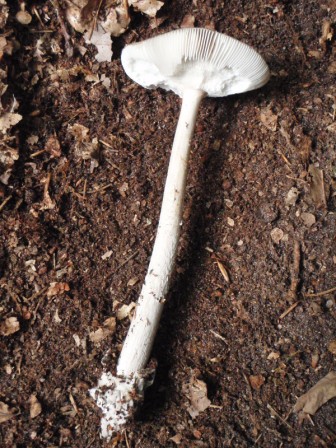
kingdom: Fungi
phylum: Basidiomycota
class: Agaricomycetes
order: Agaricales
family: Amanitaceae
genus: Amanita
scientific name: Amanita submembranacea
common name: gråspættet kam-fluesvamp
